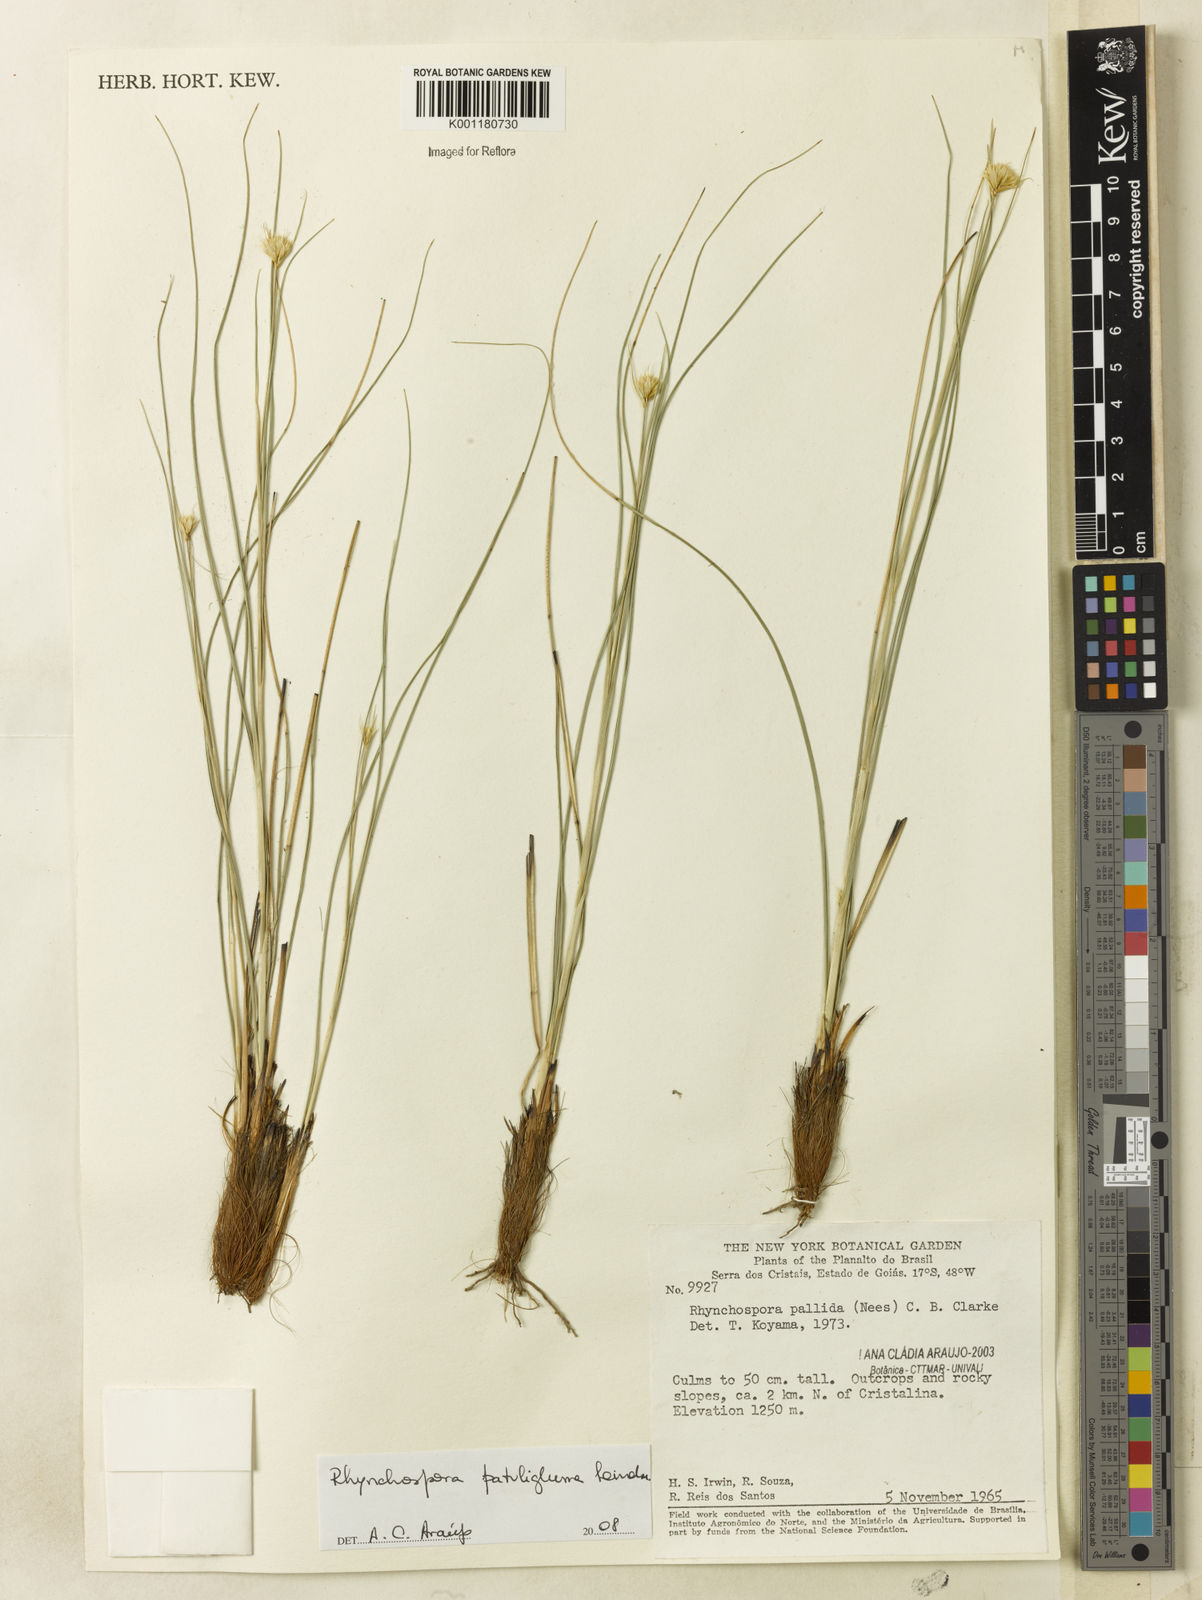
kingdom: Plantae
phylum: Tracheophyta
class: Liliopsida
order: Poales
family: Cyperaceae
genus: Rhynchospora
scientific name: Rhynchospora patuligluma
